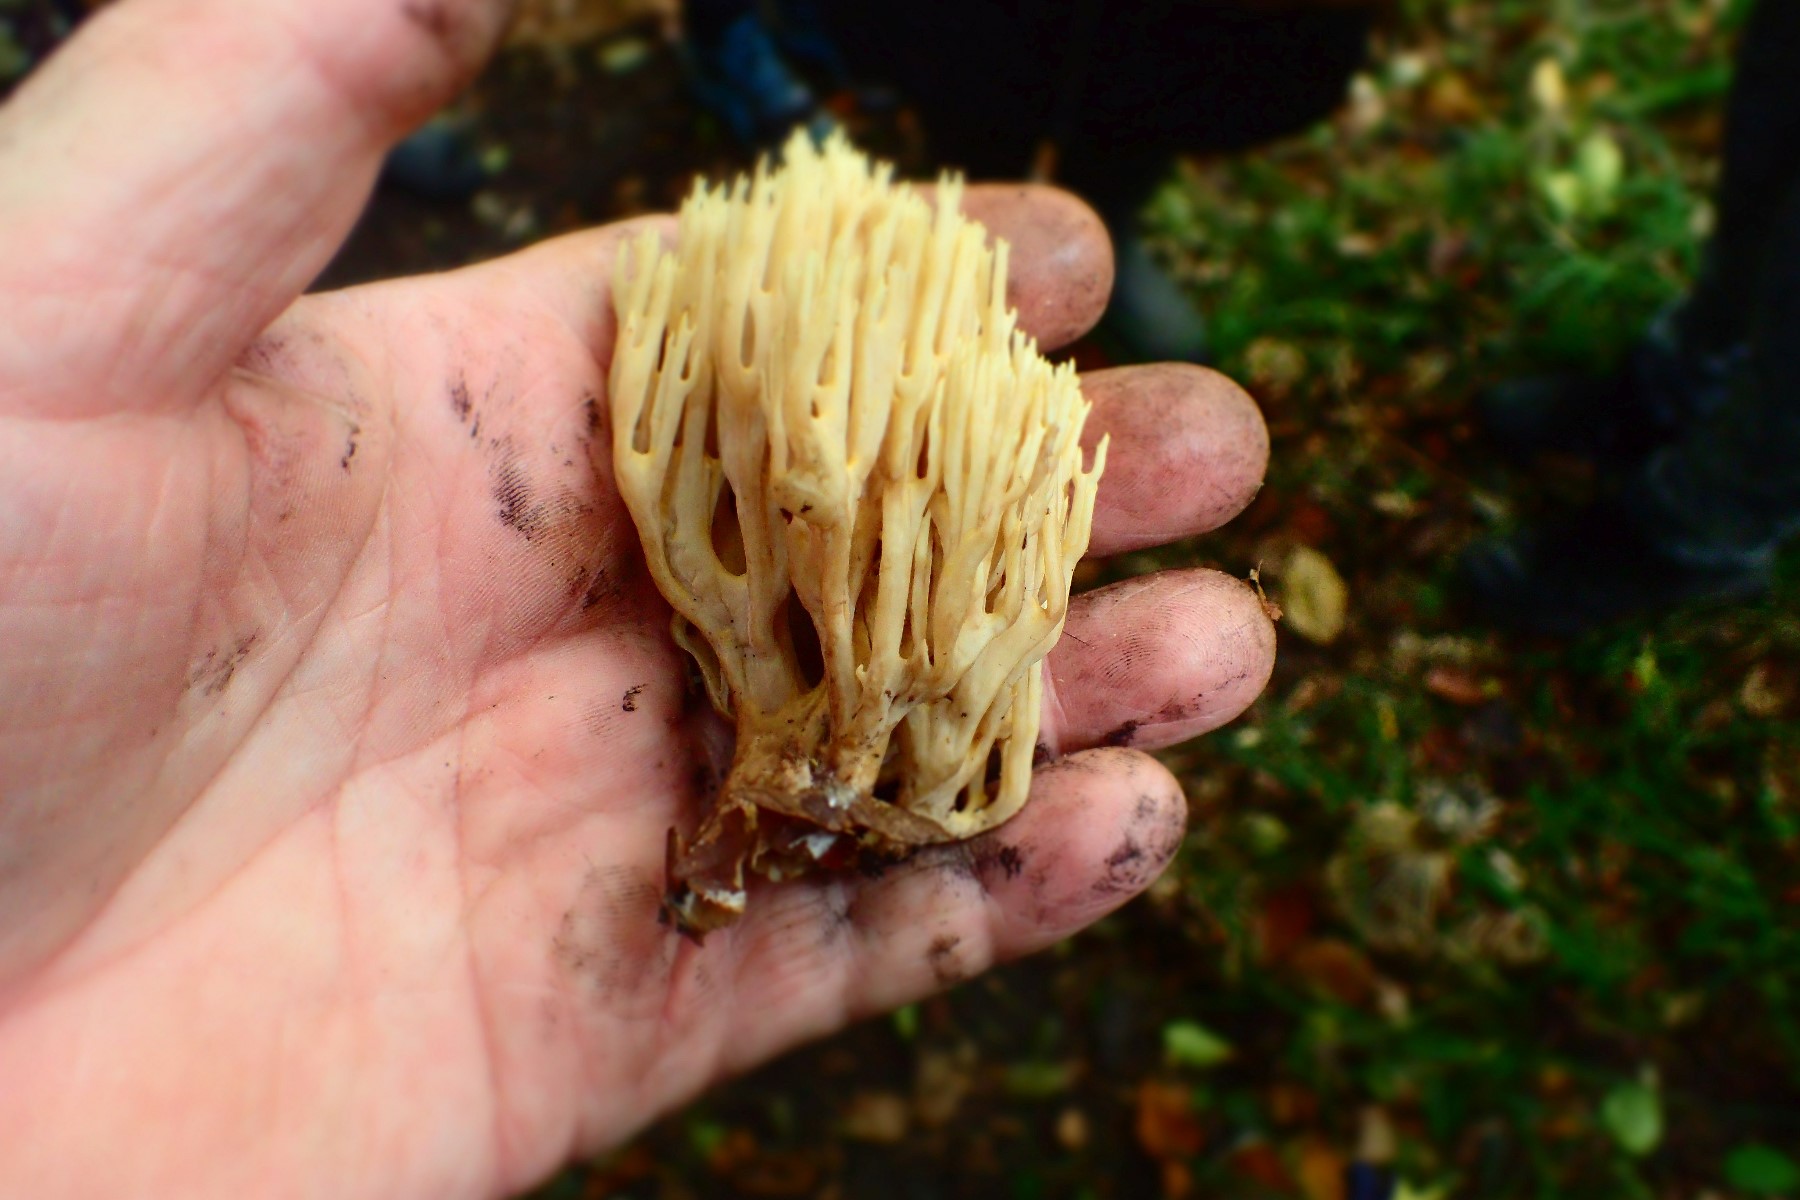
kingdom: Fungi
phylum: Basidiomycota
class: Agaricomycetes
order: Gomphales
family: Gomphaceae
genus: Ramaria
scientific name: Ramaria stricta
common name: rank koralsvamp
